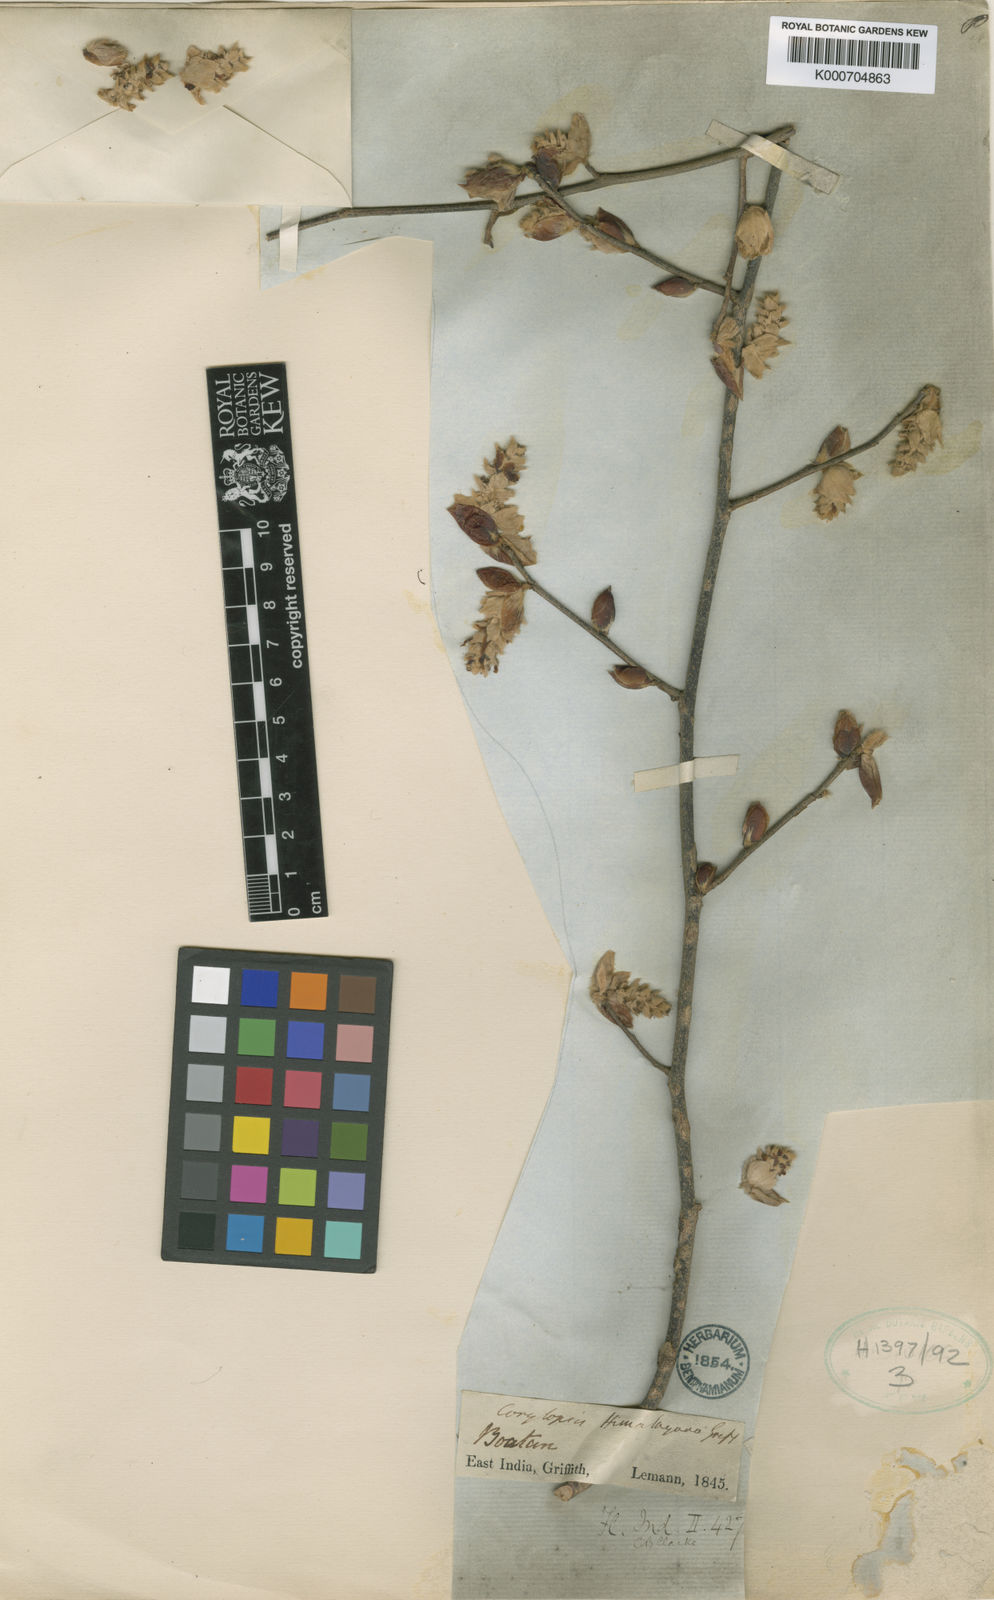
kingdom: Plantae
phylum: Tracheophyta
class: Magnoliopsida
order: Saxifragales
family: Hamamelidaceae
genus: Corylopsis
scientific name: Corylopsis himalayana
